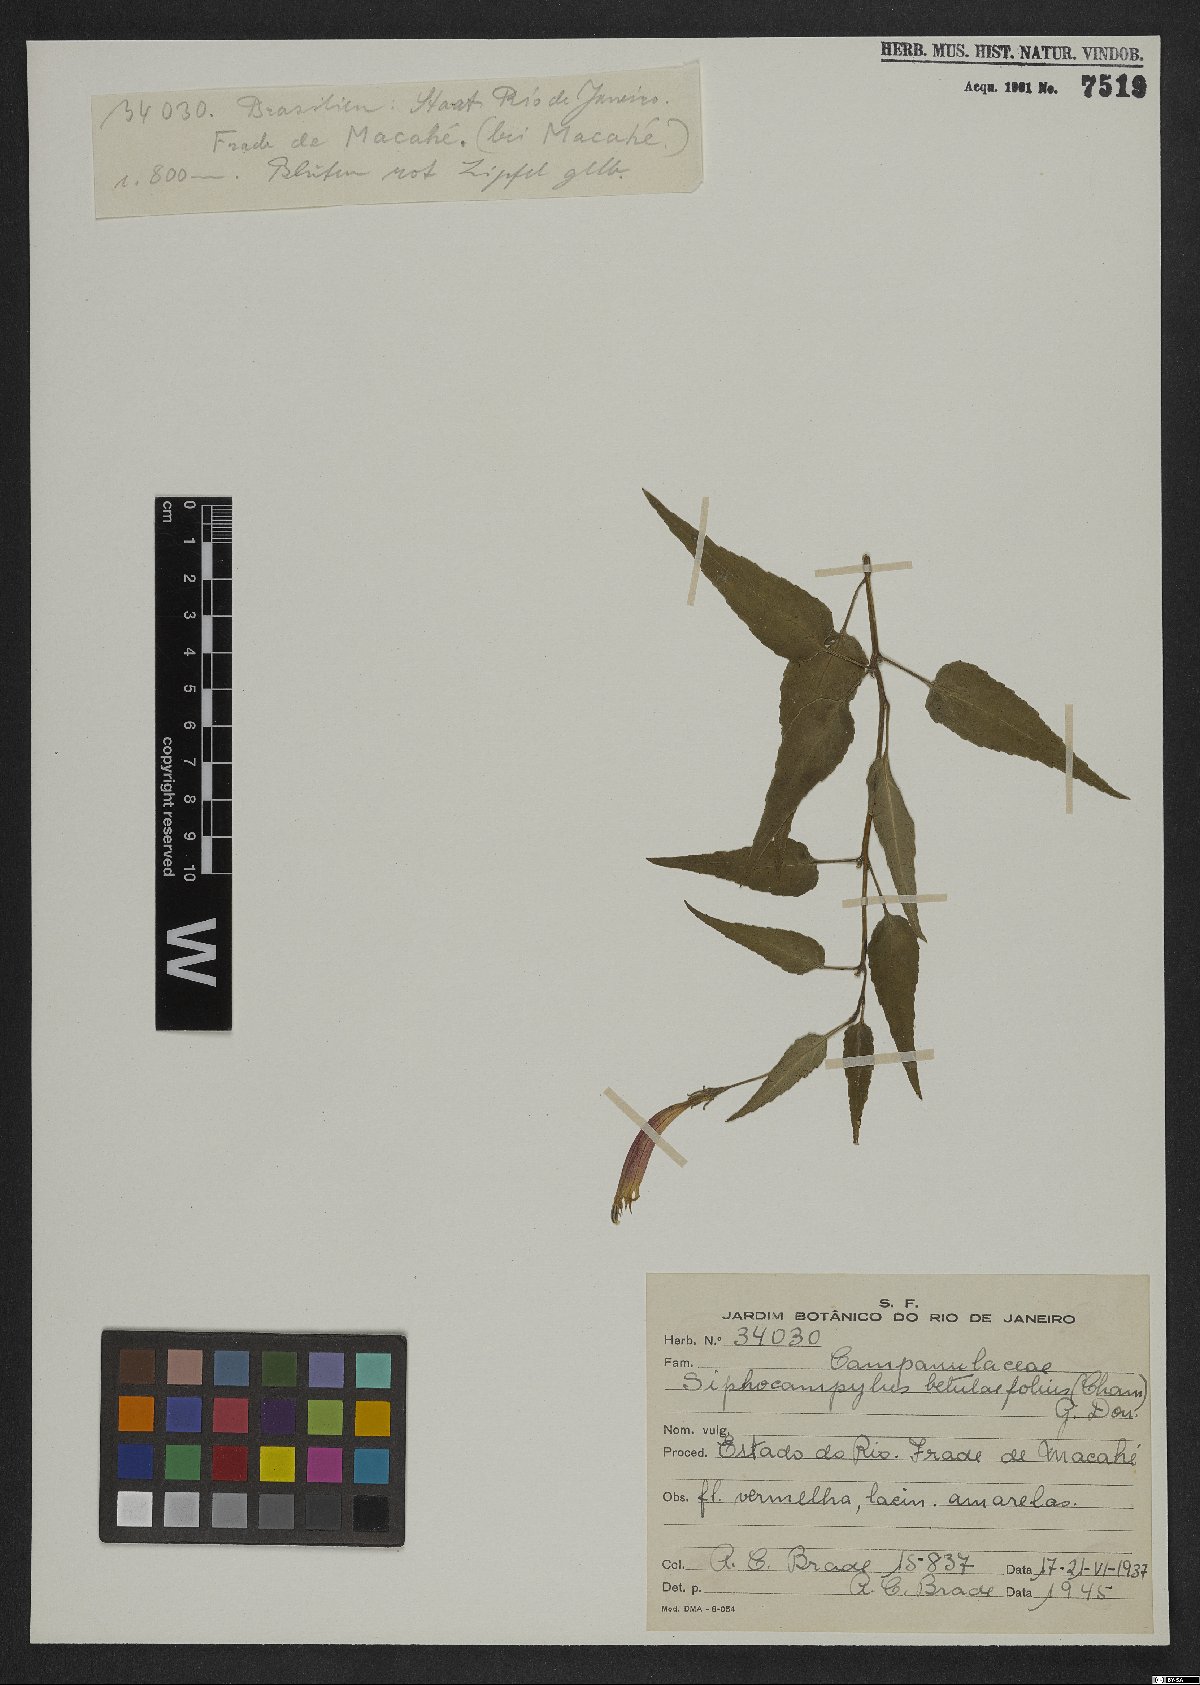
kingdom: Plantae
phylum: Tracheophyta
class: Magnoliopsida
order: Asterales
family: Campanulaceae
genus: Siphocampylus
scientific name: Siphocampylus betulifolius
